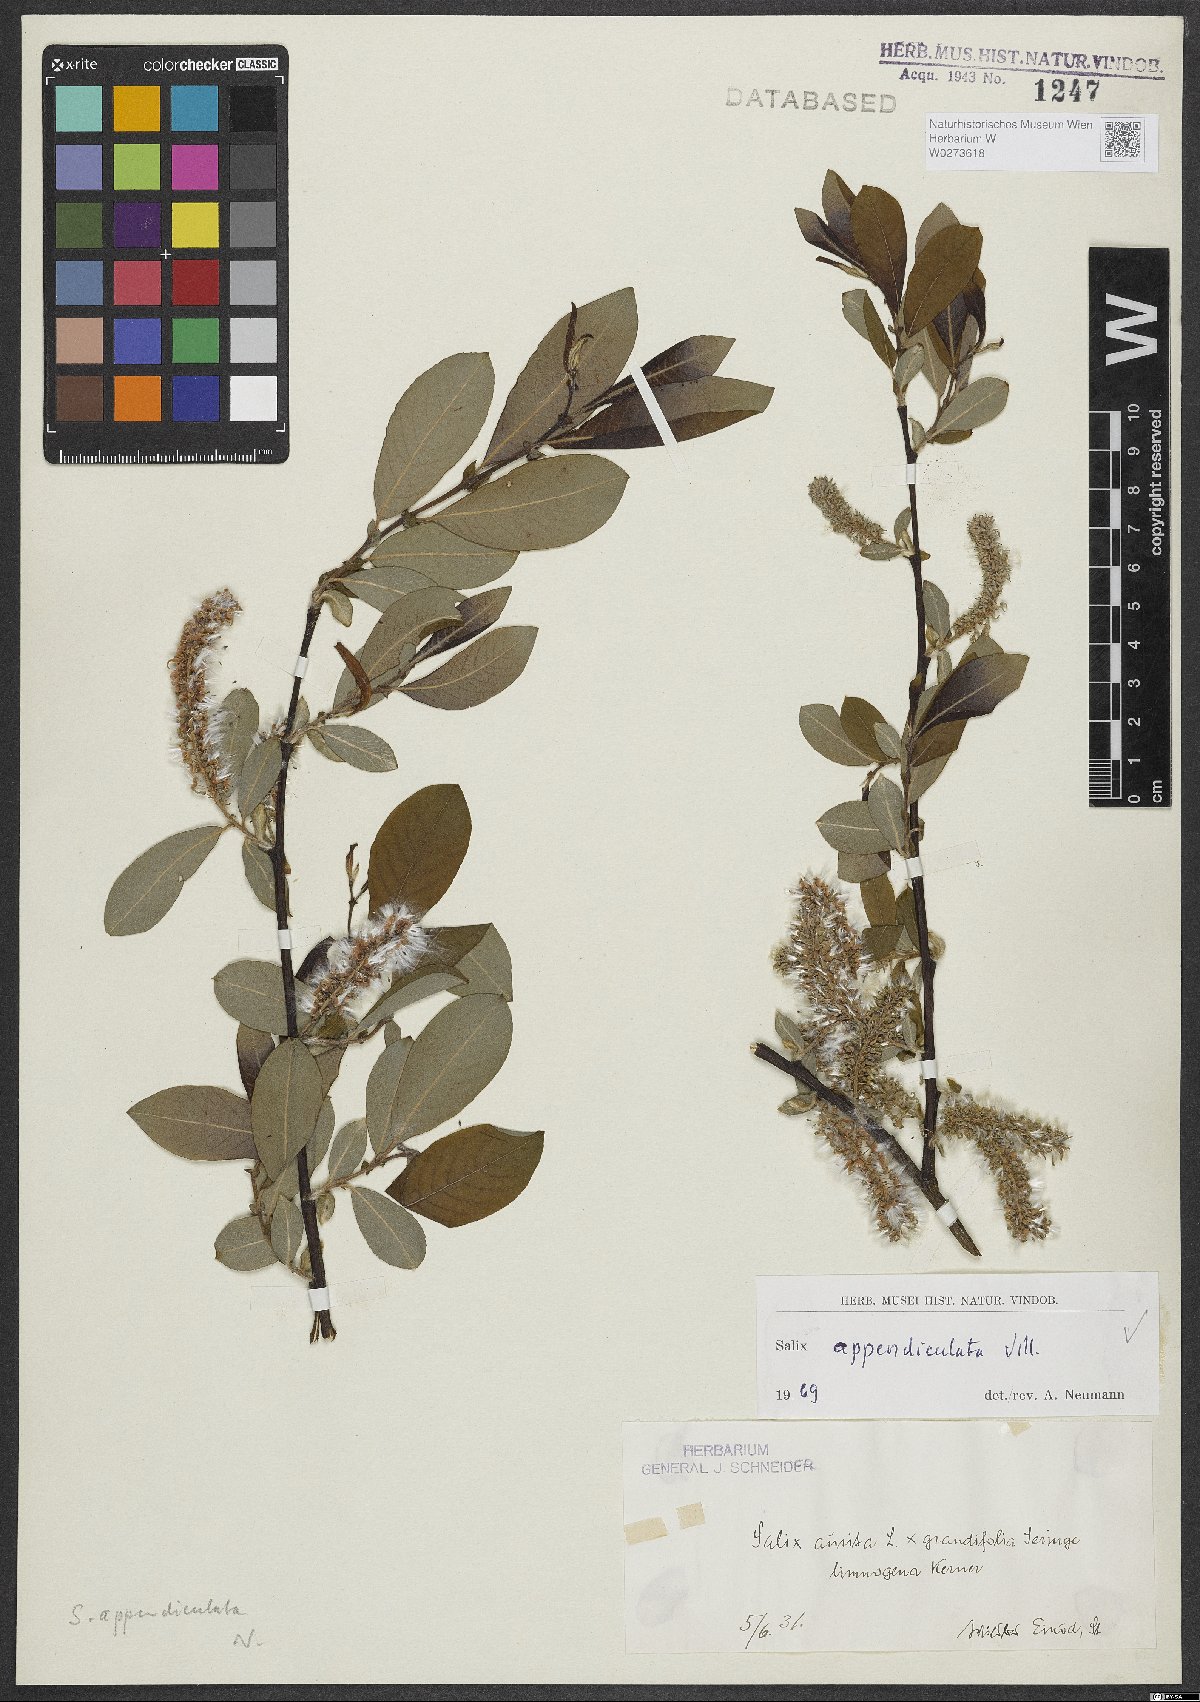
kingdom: Plantae
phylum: Tracheophyta
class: Magnoliopsida
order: Malpighiales
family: Salicaceae
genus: Salix
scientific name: Salix appendiculata
